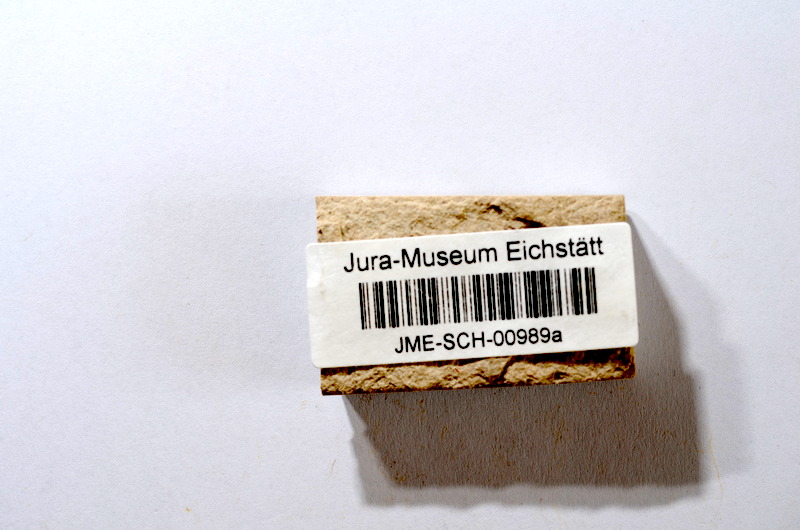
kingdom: Animalia
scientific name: Animalia
